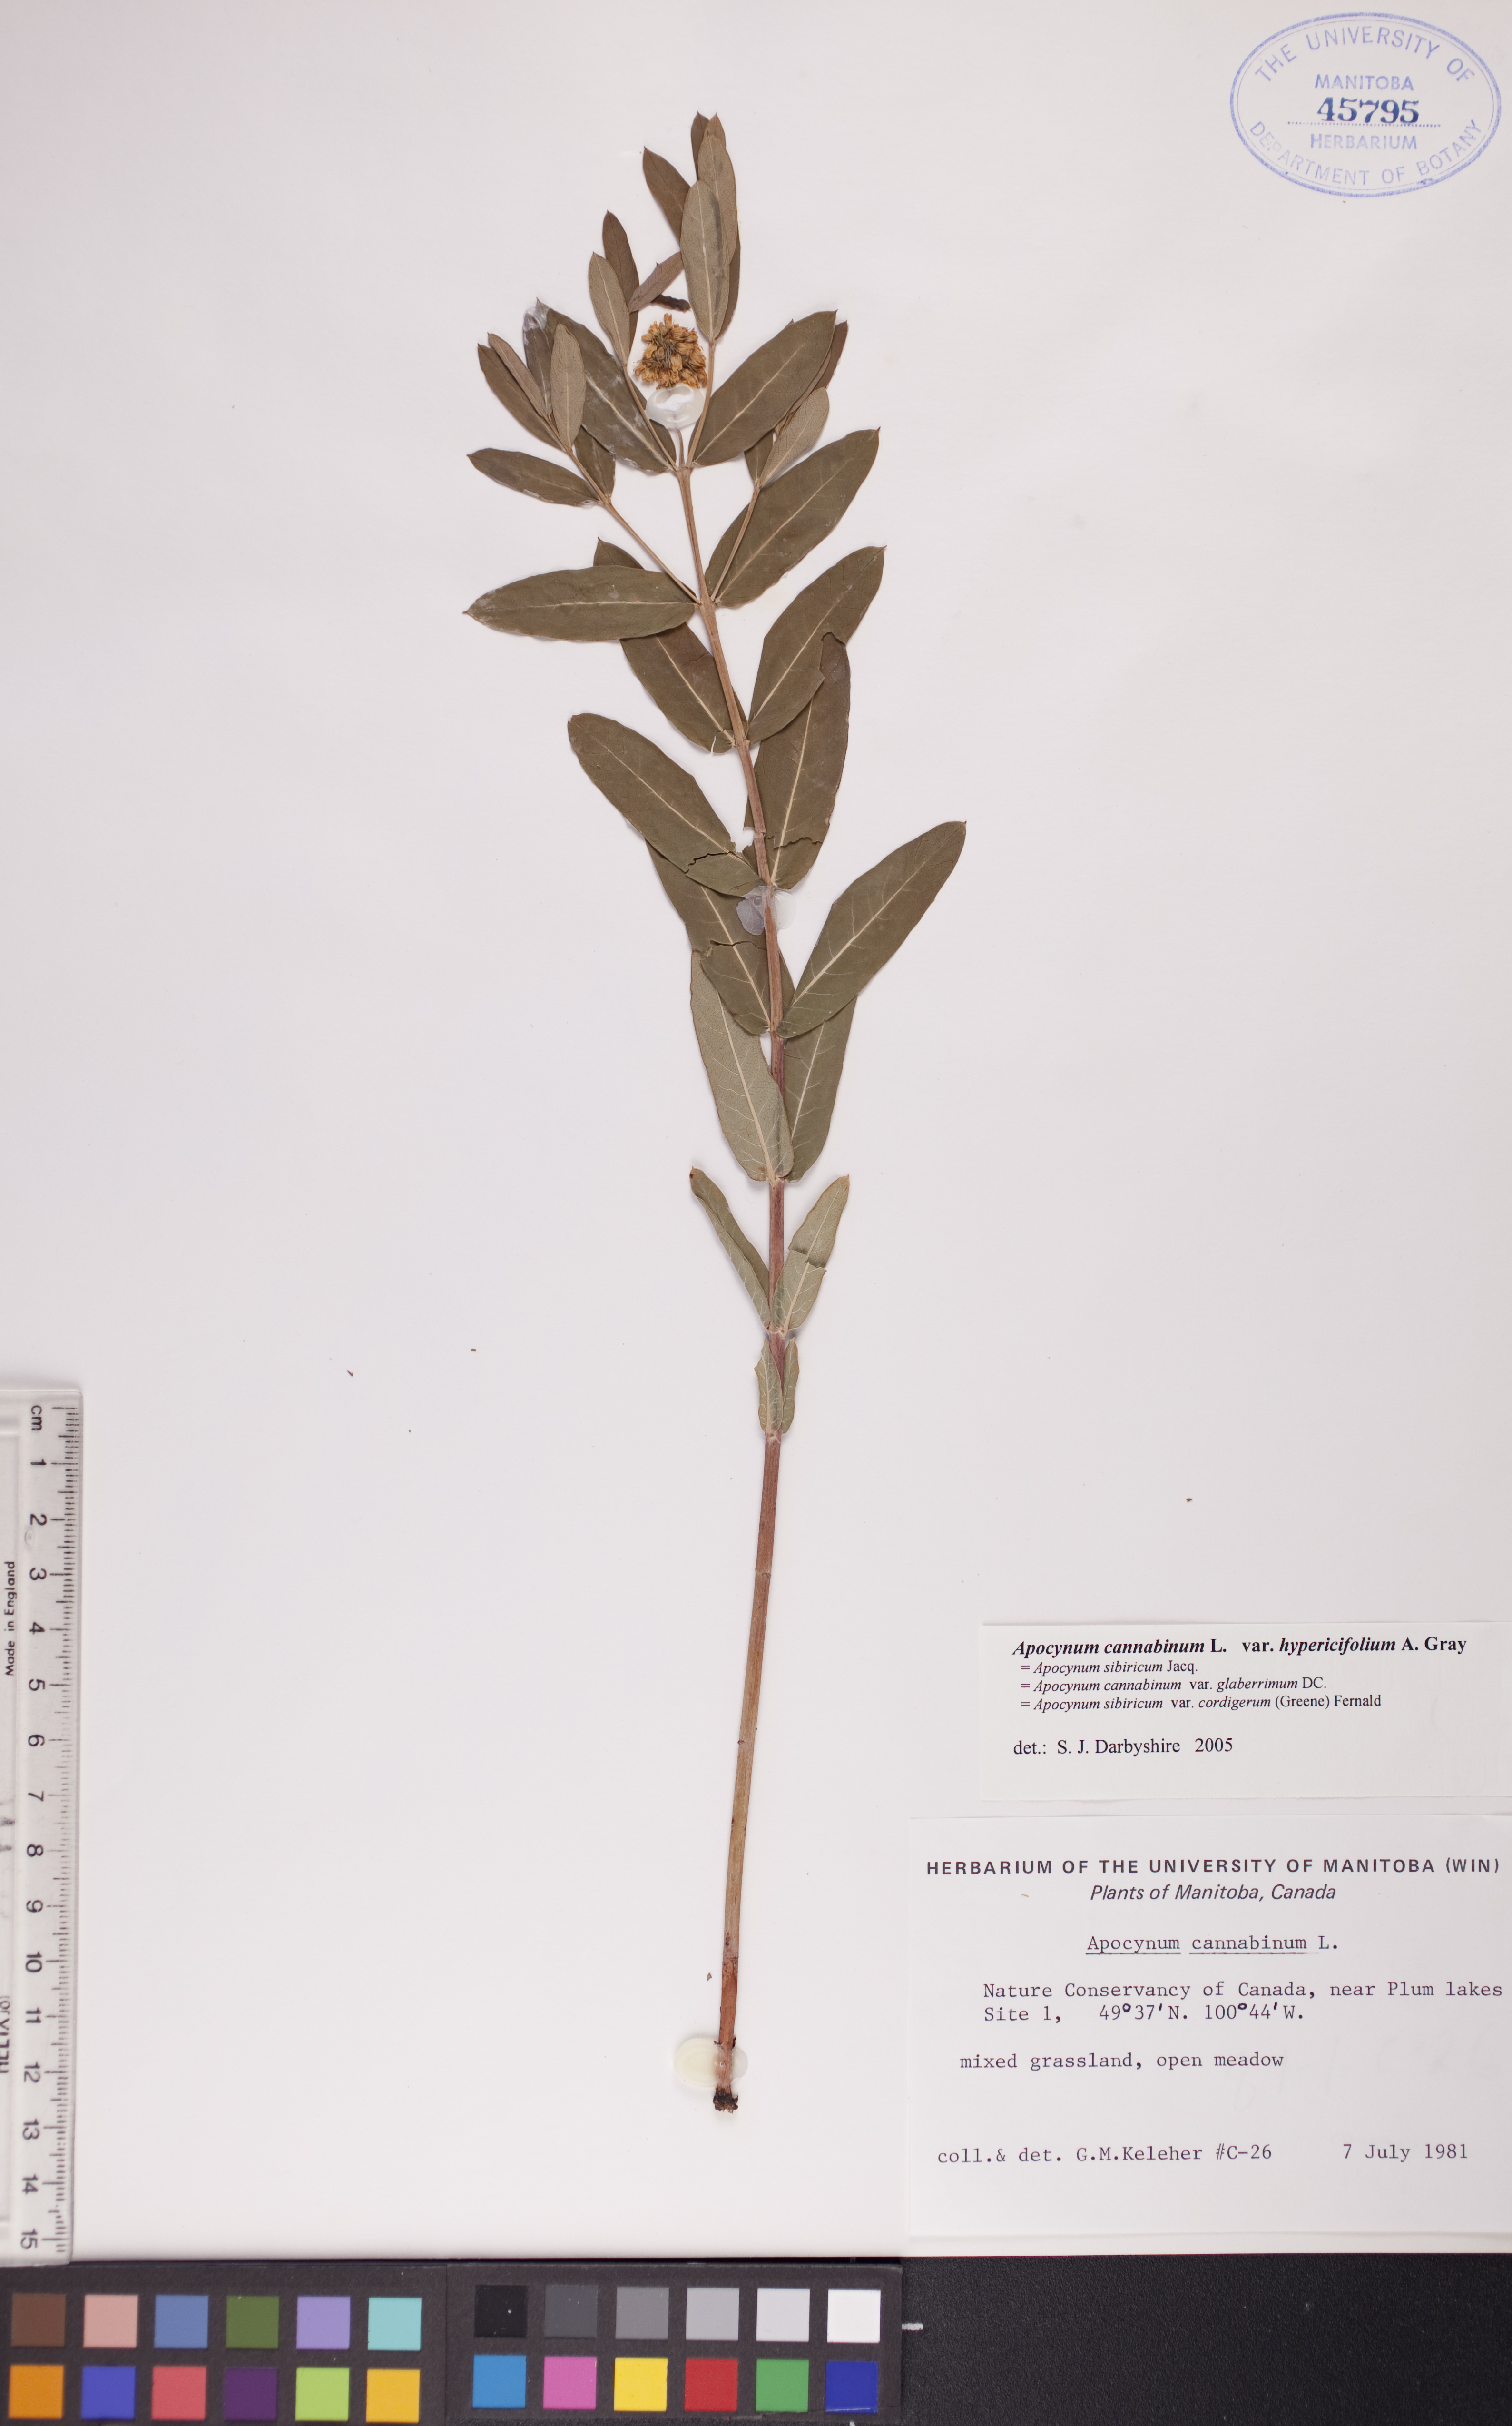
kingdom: Plantae
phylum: Tracheophyta
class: Magnoliopsida
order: Gentianales
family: Apocynaceae
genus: Apocynum
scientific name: Apocynum cannabinum
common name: Hemp dogbane
